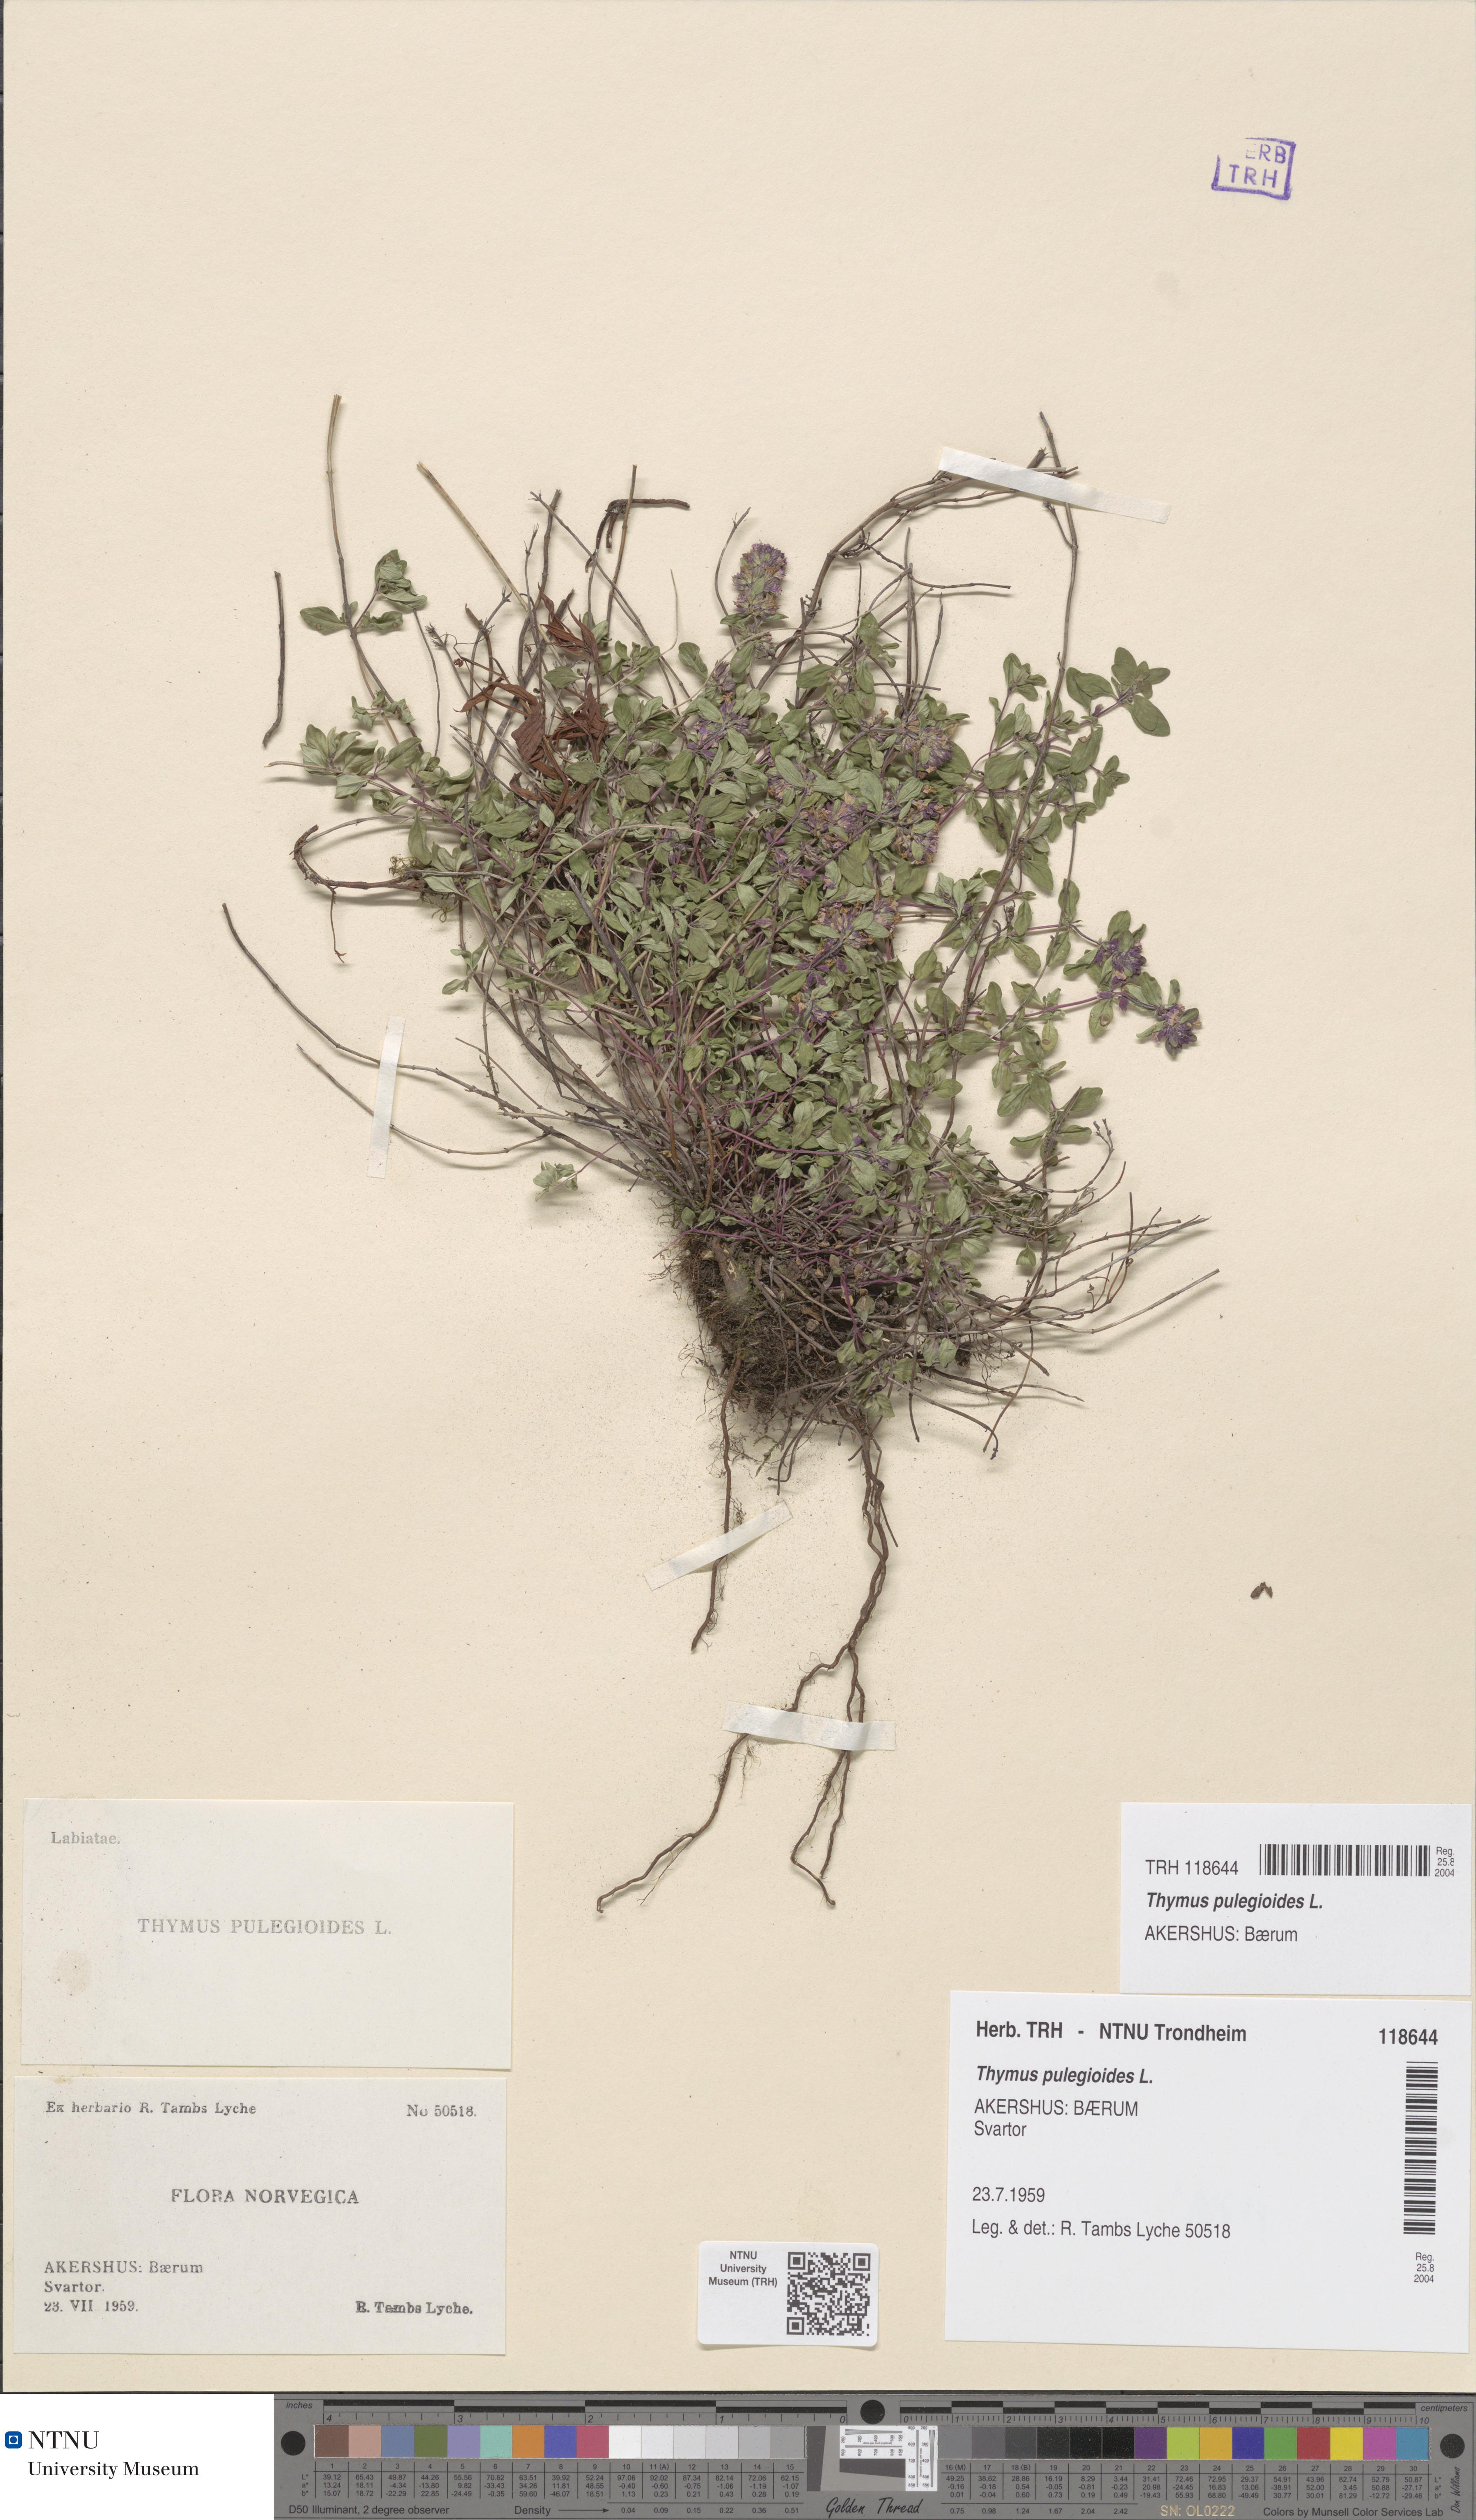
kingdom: Plantae
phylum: Tracheophyta
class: Magnoliopsida
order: Lamiales
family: Lamiaceae
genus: Thymus
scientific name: Thymus pulegioides
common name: Large thyme
